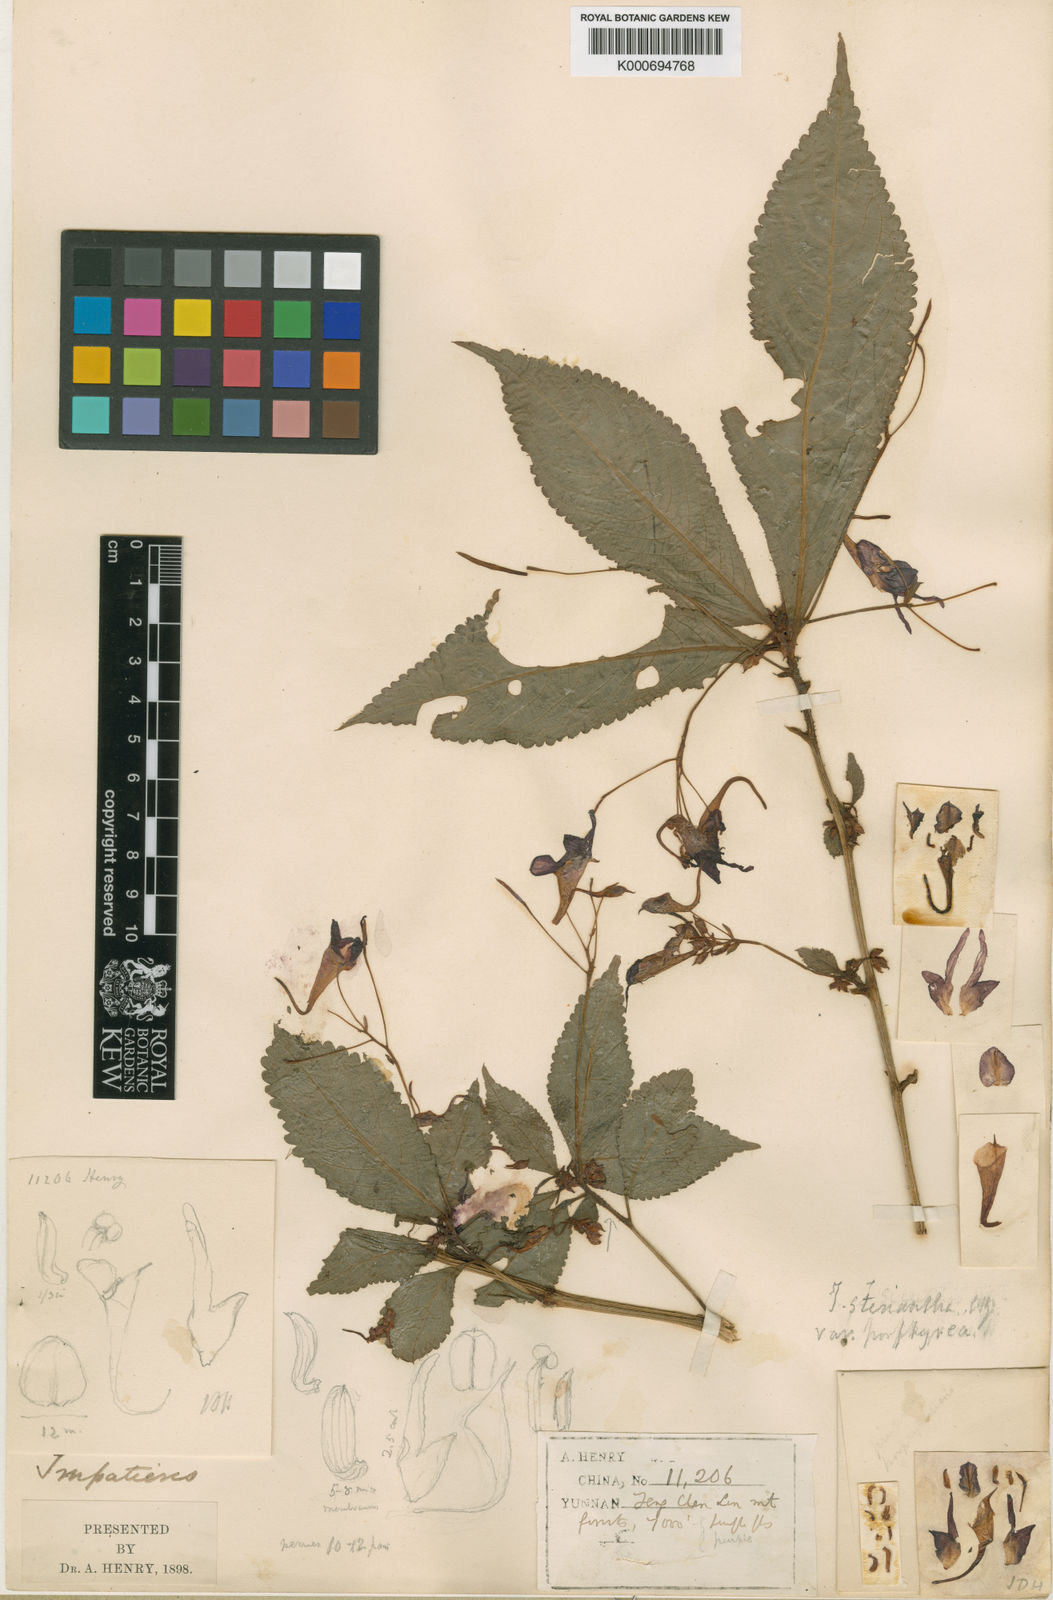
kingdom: Plantae
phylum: Tracheophyta
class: Magnoliopsida
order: Ericales
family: Balsaminaceae
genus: Impatiens
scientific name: Impatiens stenantha
